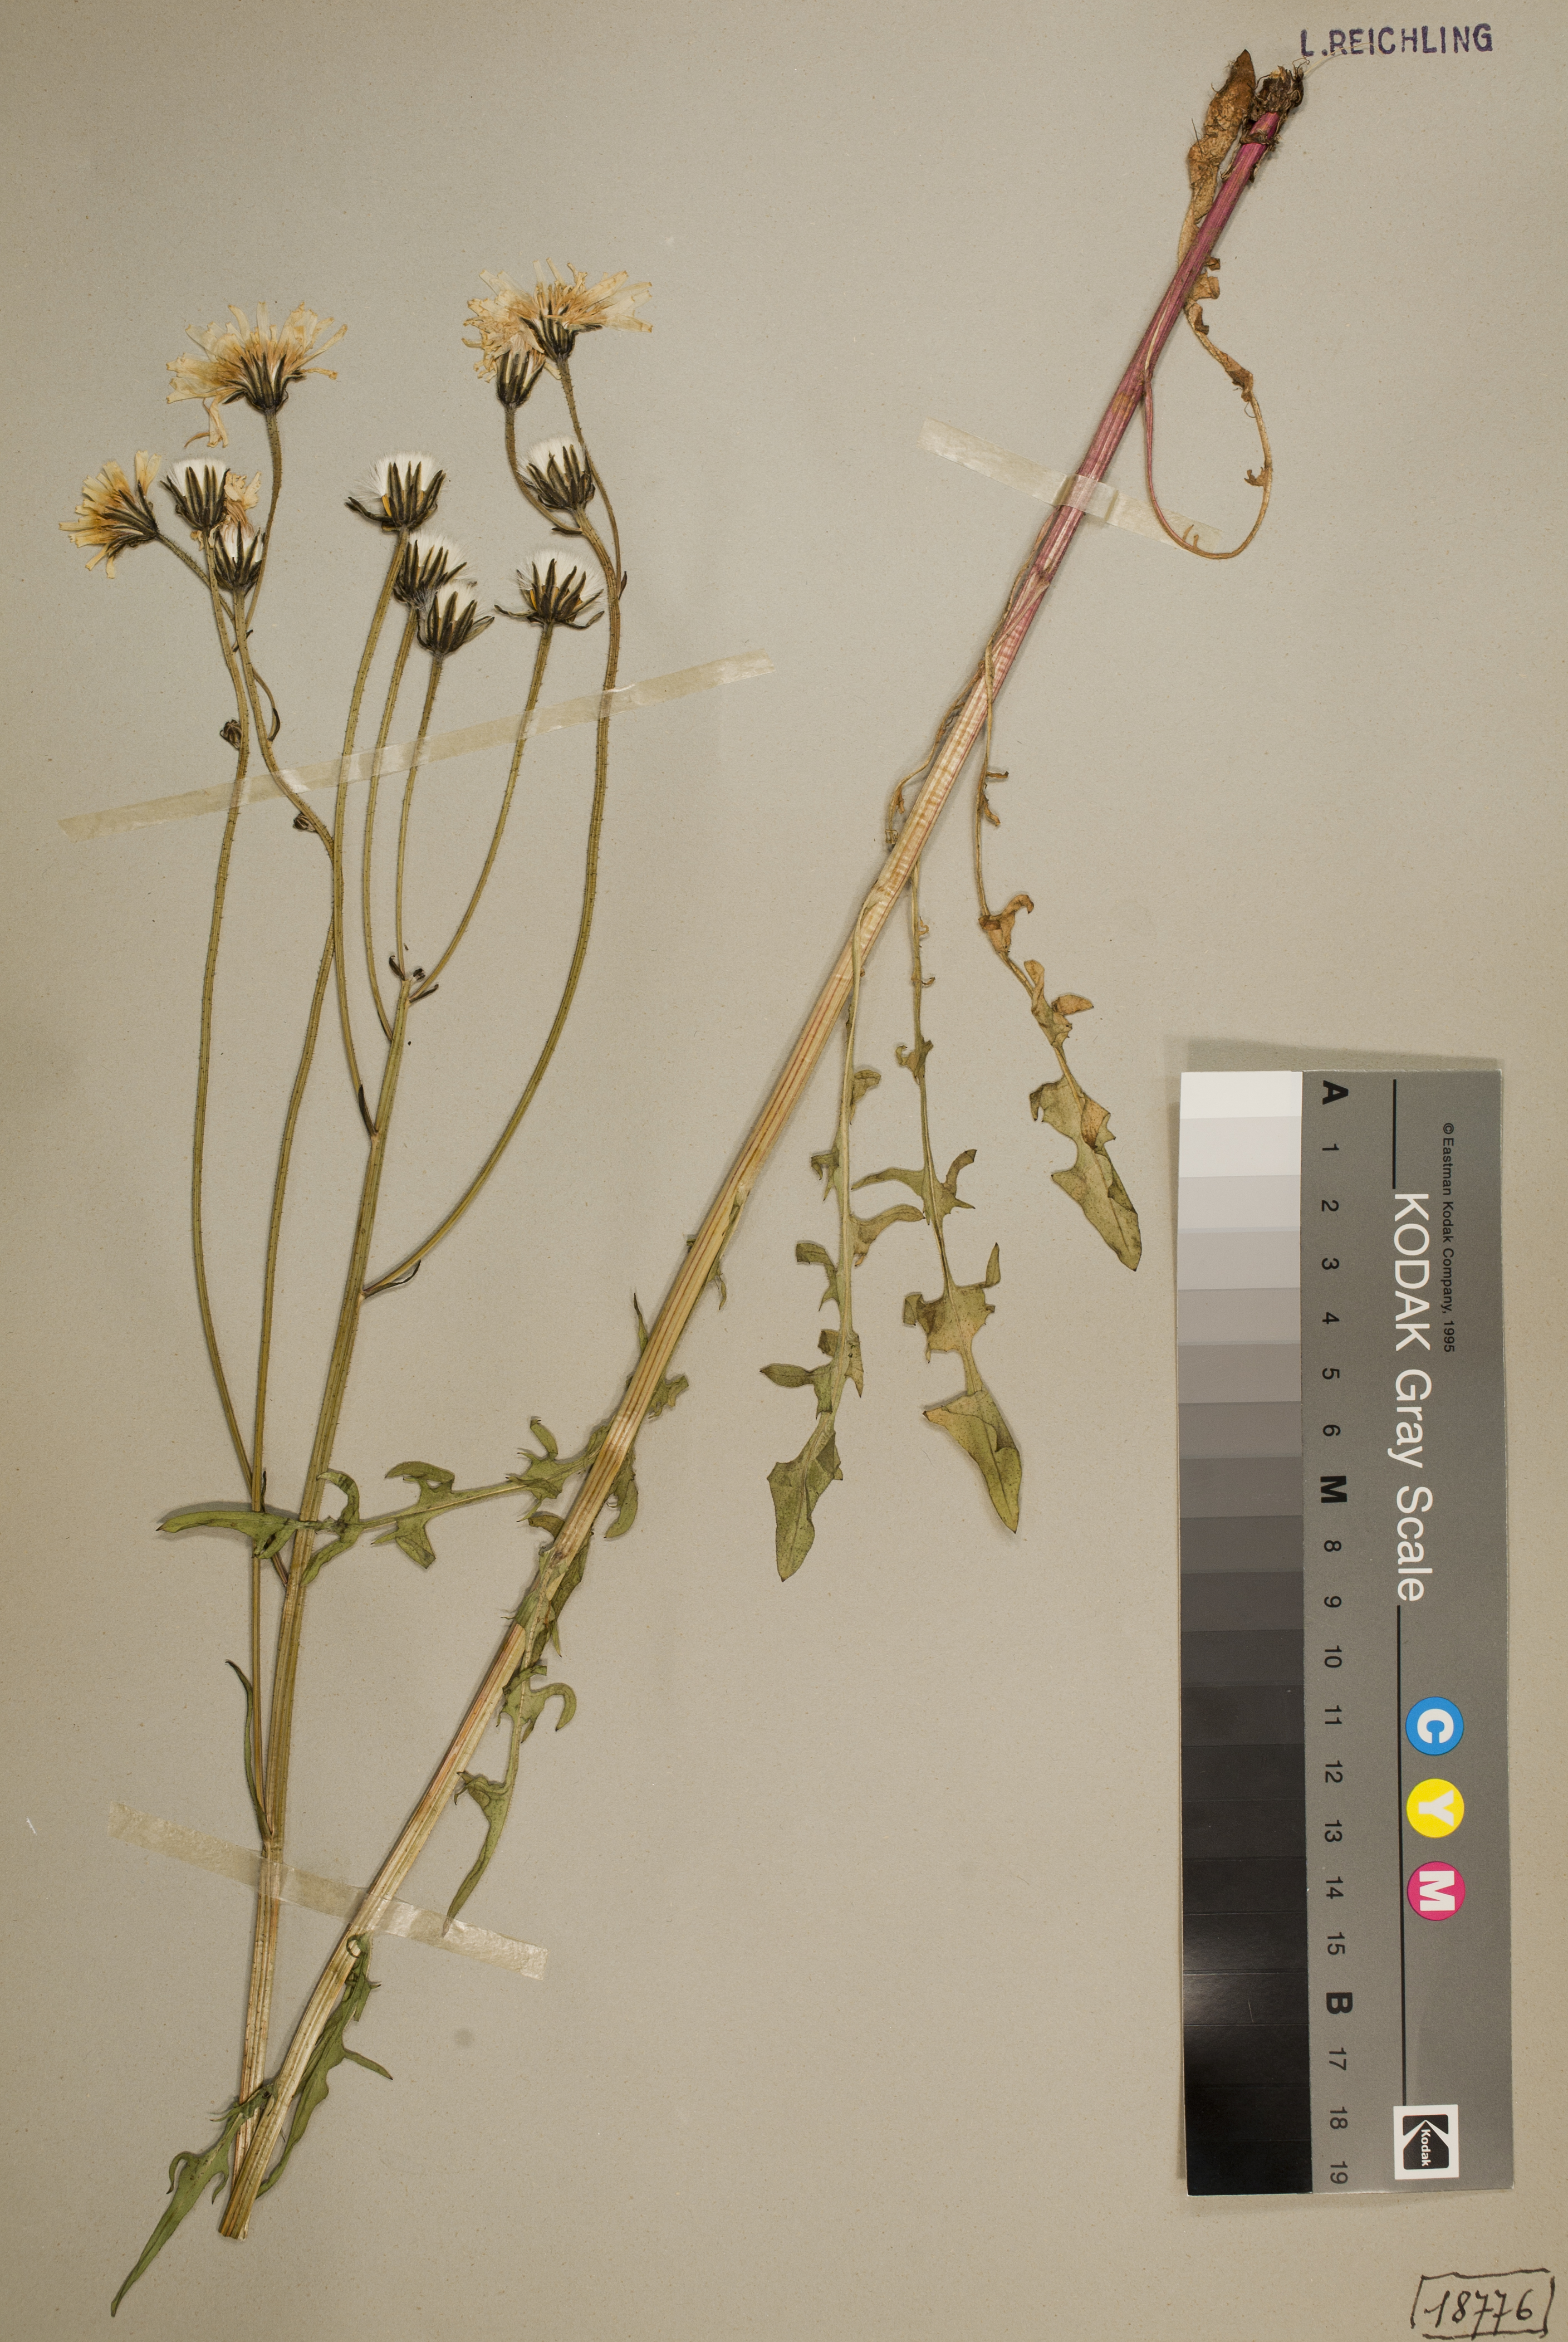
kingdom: Plantae
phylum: Tracheophyta
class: Magnoliopsida
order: Asterales
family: Asteraceae
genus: Crepis
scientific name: Crepis biennis
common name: Rough hawk's-beard
